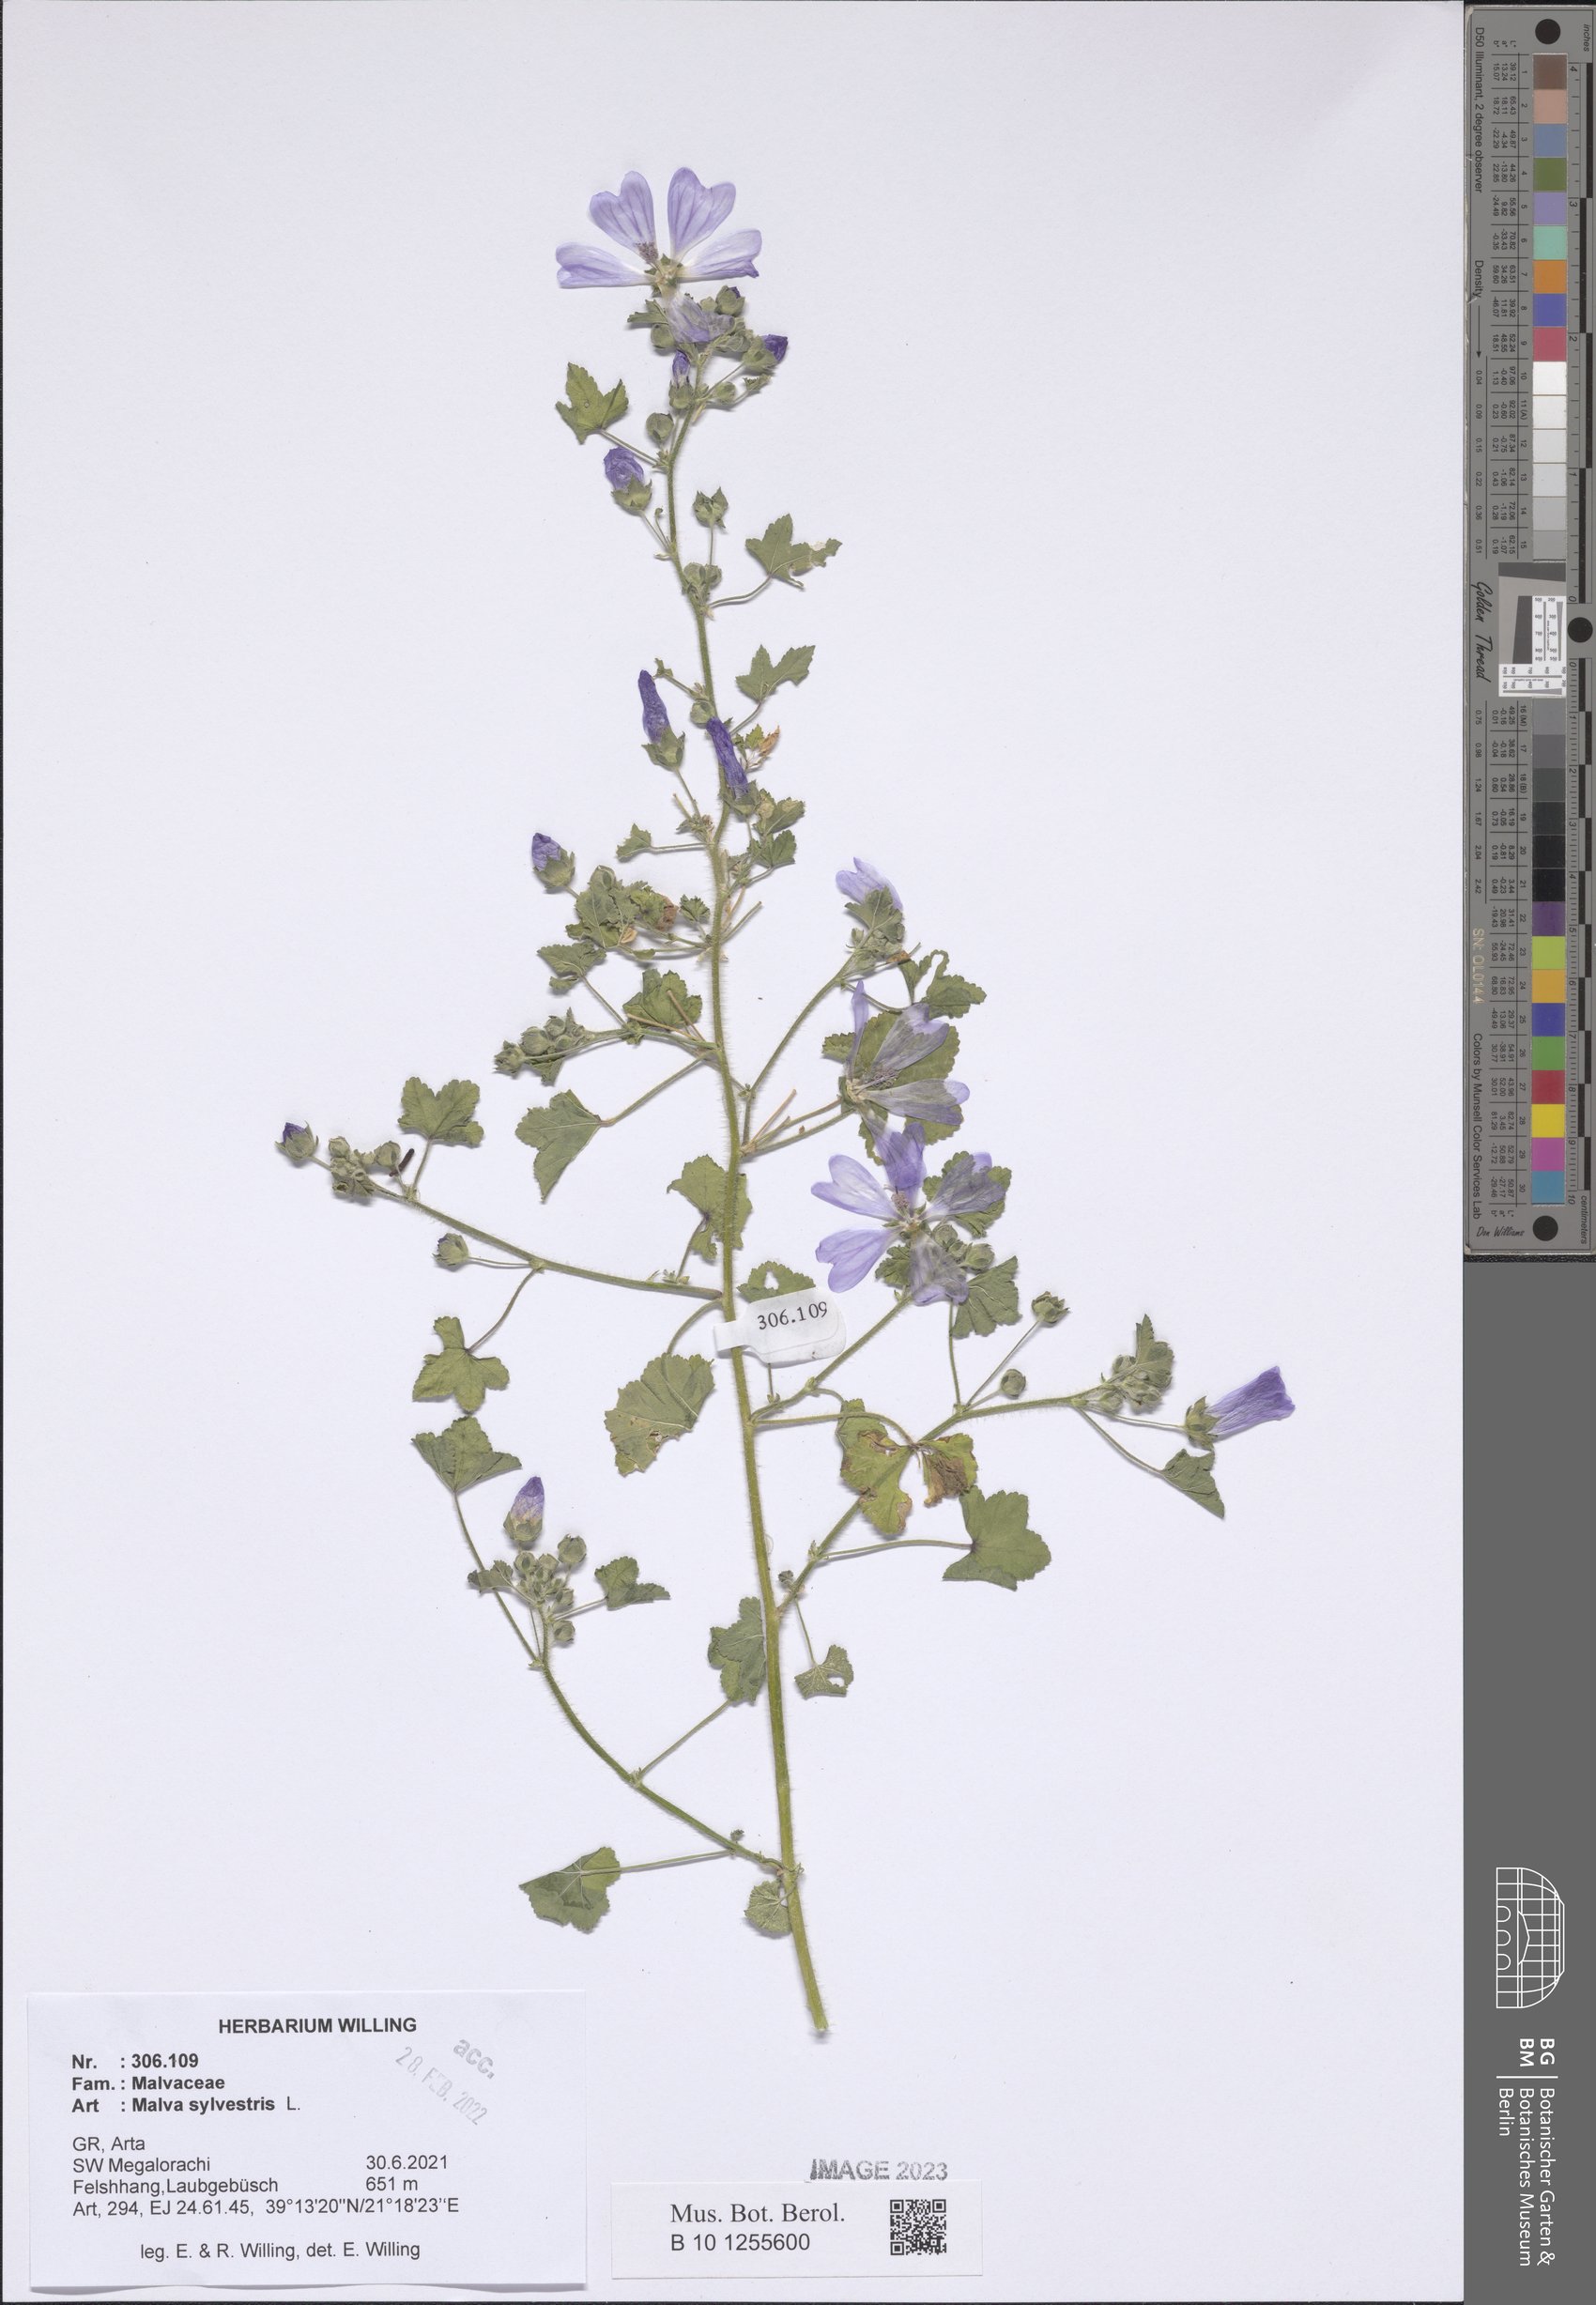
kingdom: Plantae
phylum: Tracheophyta
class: Magnoliopsida
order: Malvales
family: Malvaceae
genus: Malva
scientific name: Malva sylvestris
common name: Common mallow
